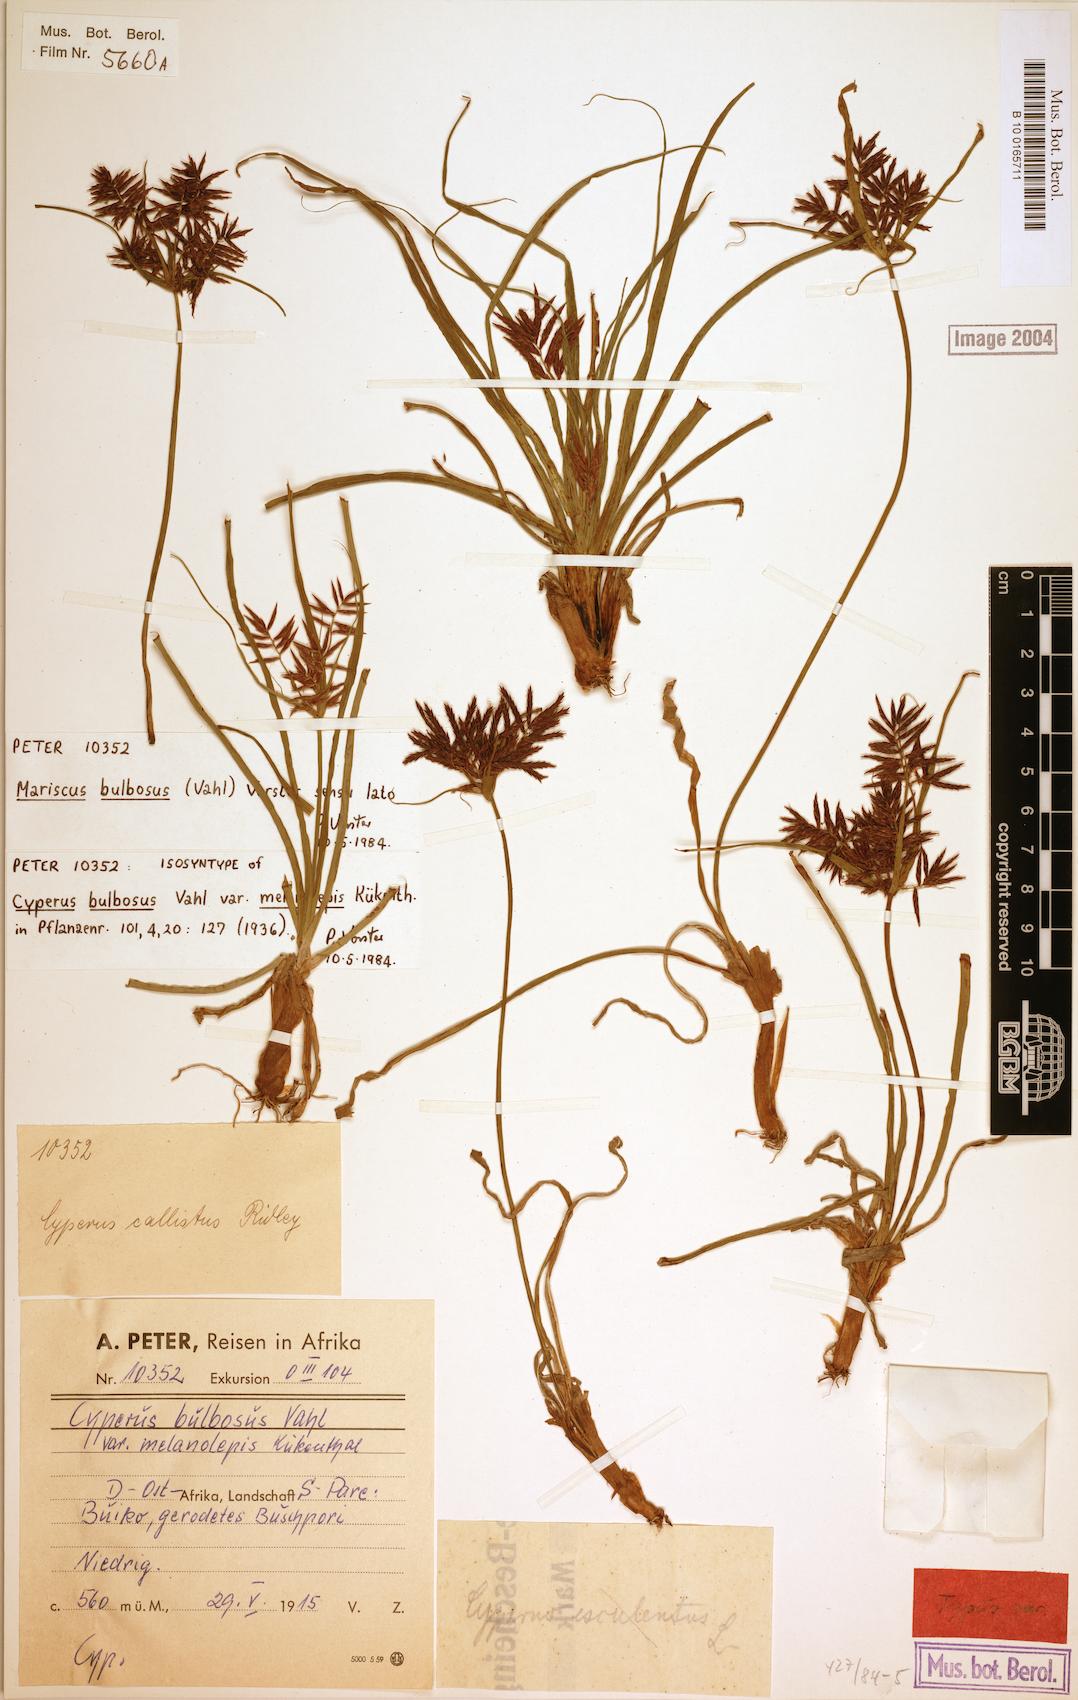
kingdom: Plantae
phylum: Tracheophyta
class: Liliopsida
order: Poales
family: Cyperaceae
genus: Cyperus
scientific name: Cyperus bulbosus
